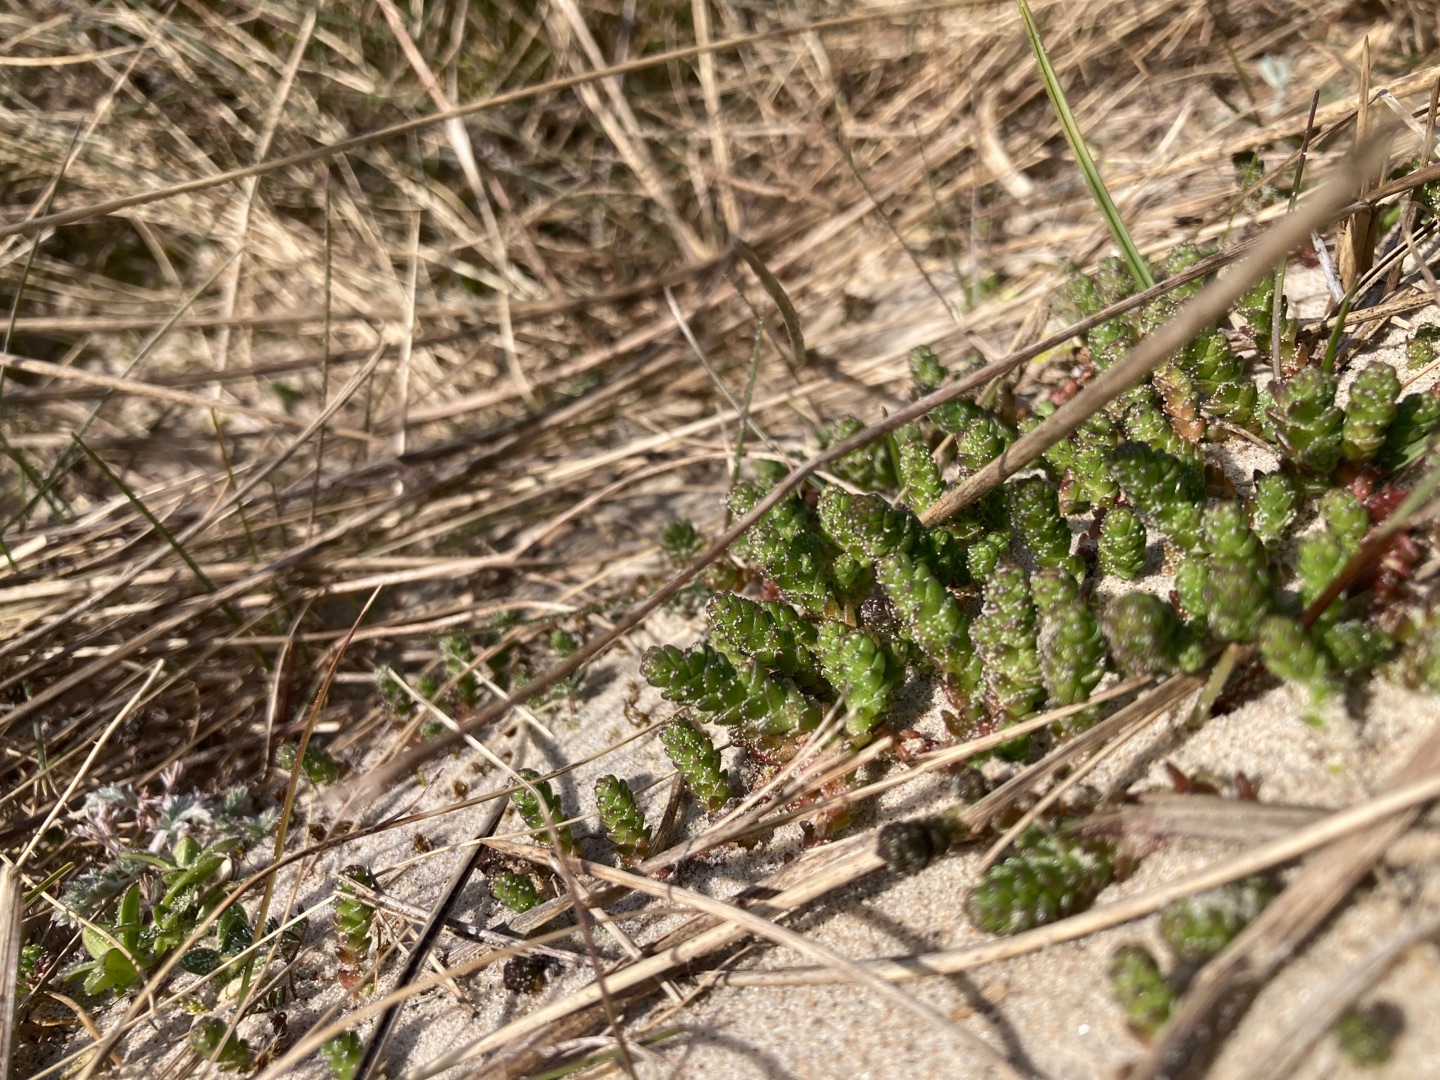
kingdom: Plantae
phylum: Tracheophyta
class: Magnoliopsida
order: Saxifragales
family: Crassulaceae
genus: Sedum
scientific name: Sedum acre
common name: Bidende stenurt
